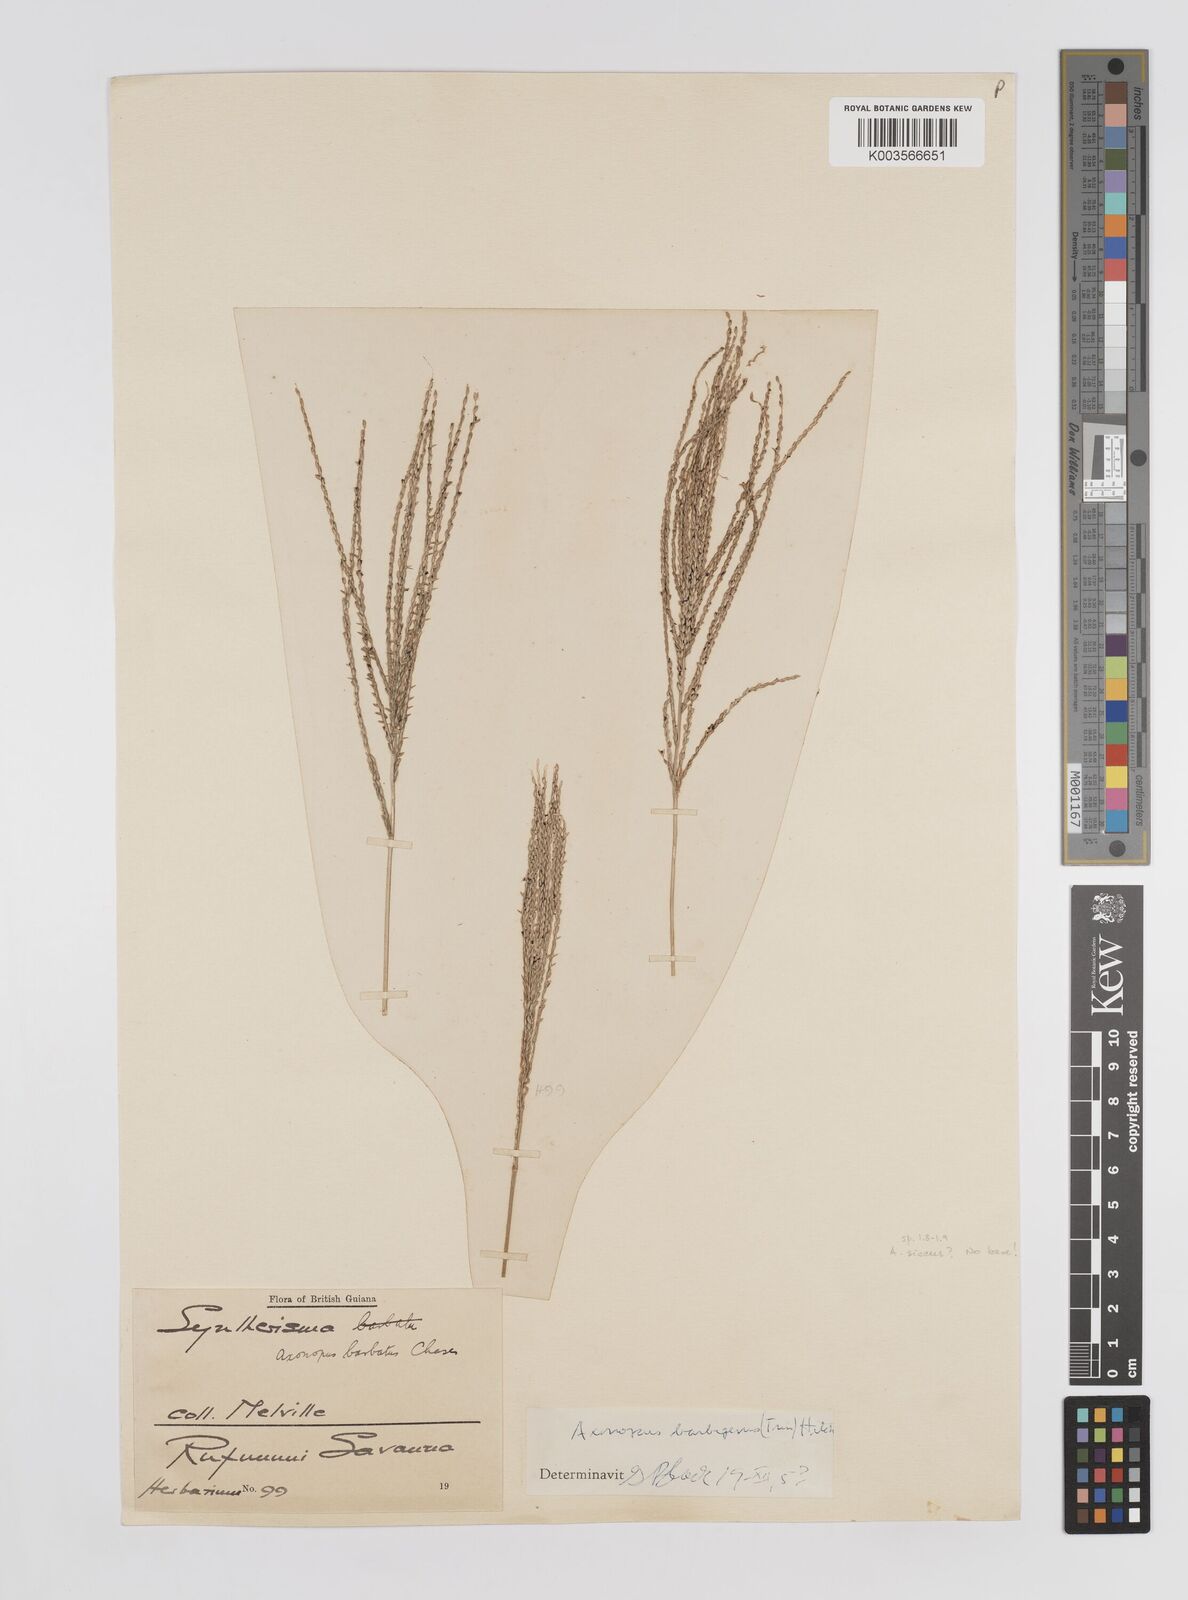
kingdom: Plantae
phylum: Tracheophyta
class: Liliopsida
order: Poales
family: Poaceae
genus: Axonopus
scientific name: Axonopus siccus
